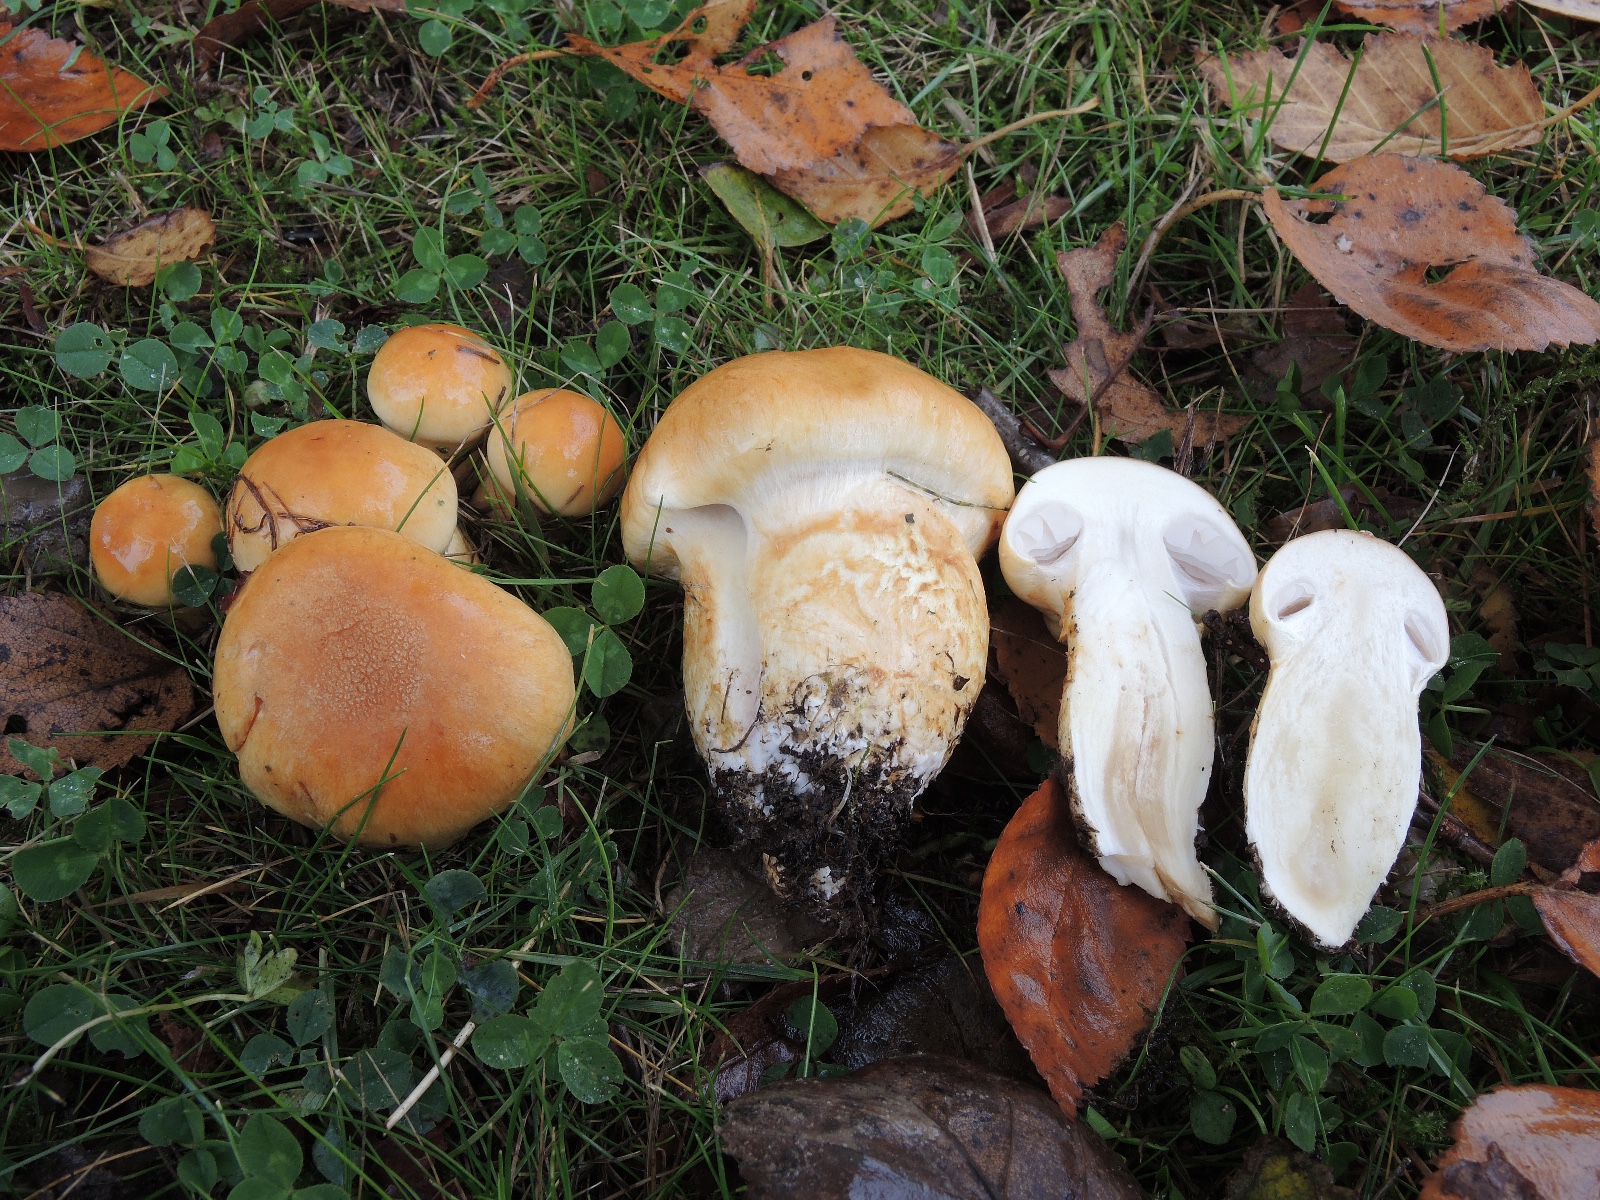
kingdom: Fungi
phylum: Basidiomycota
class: Agaricomycetes
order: Agaricales
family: Cortinariaceae
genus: Phlegmacium
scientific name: Phlegmacium triumphans
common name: gulbæltet slørhat
